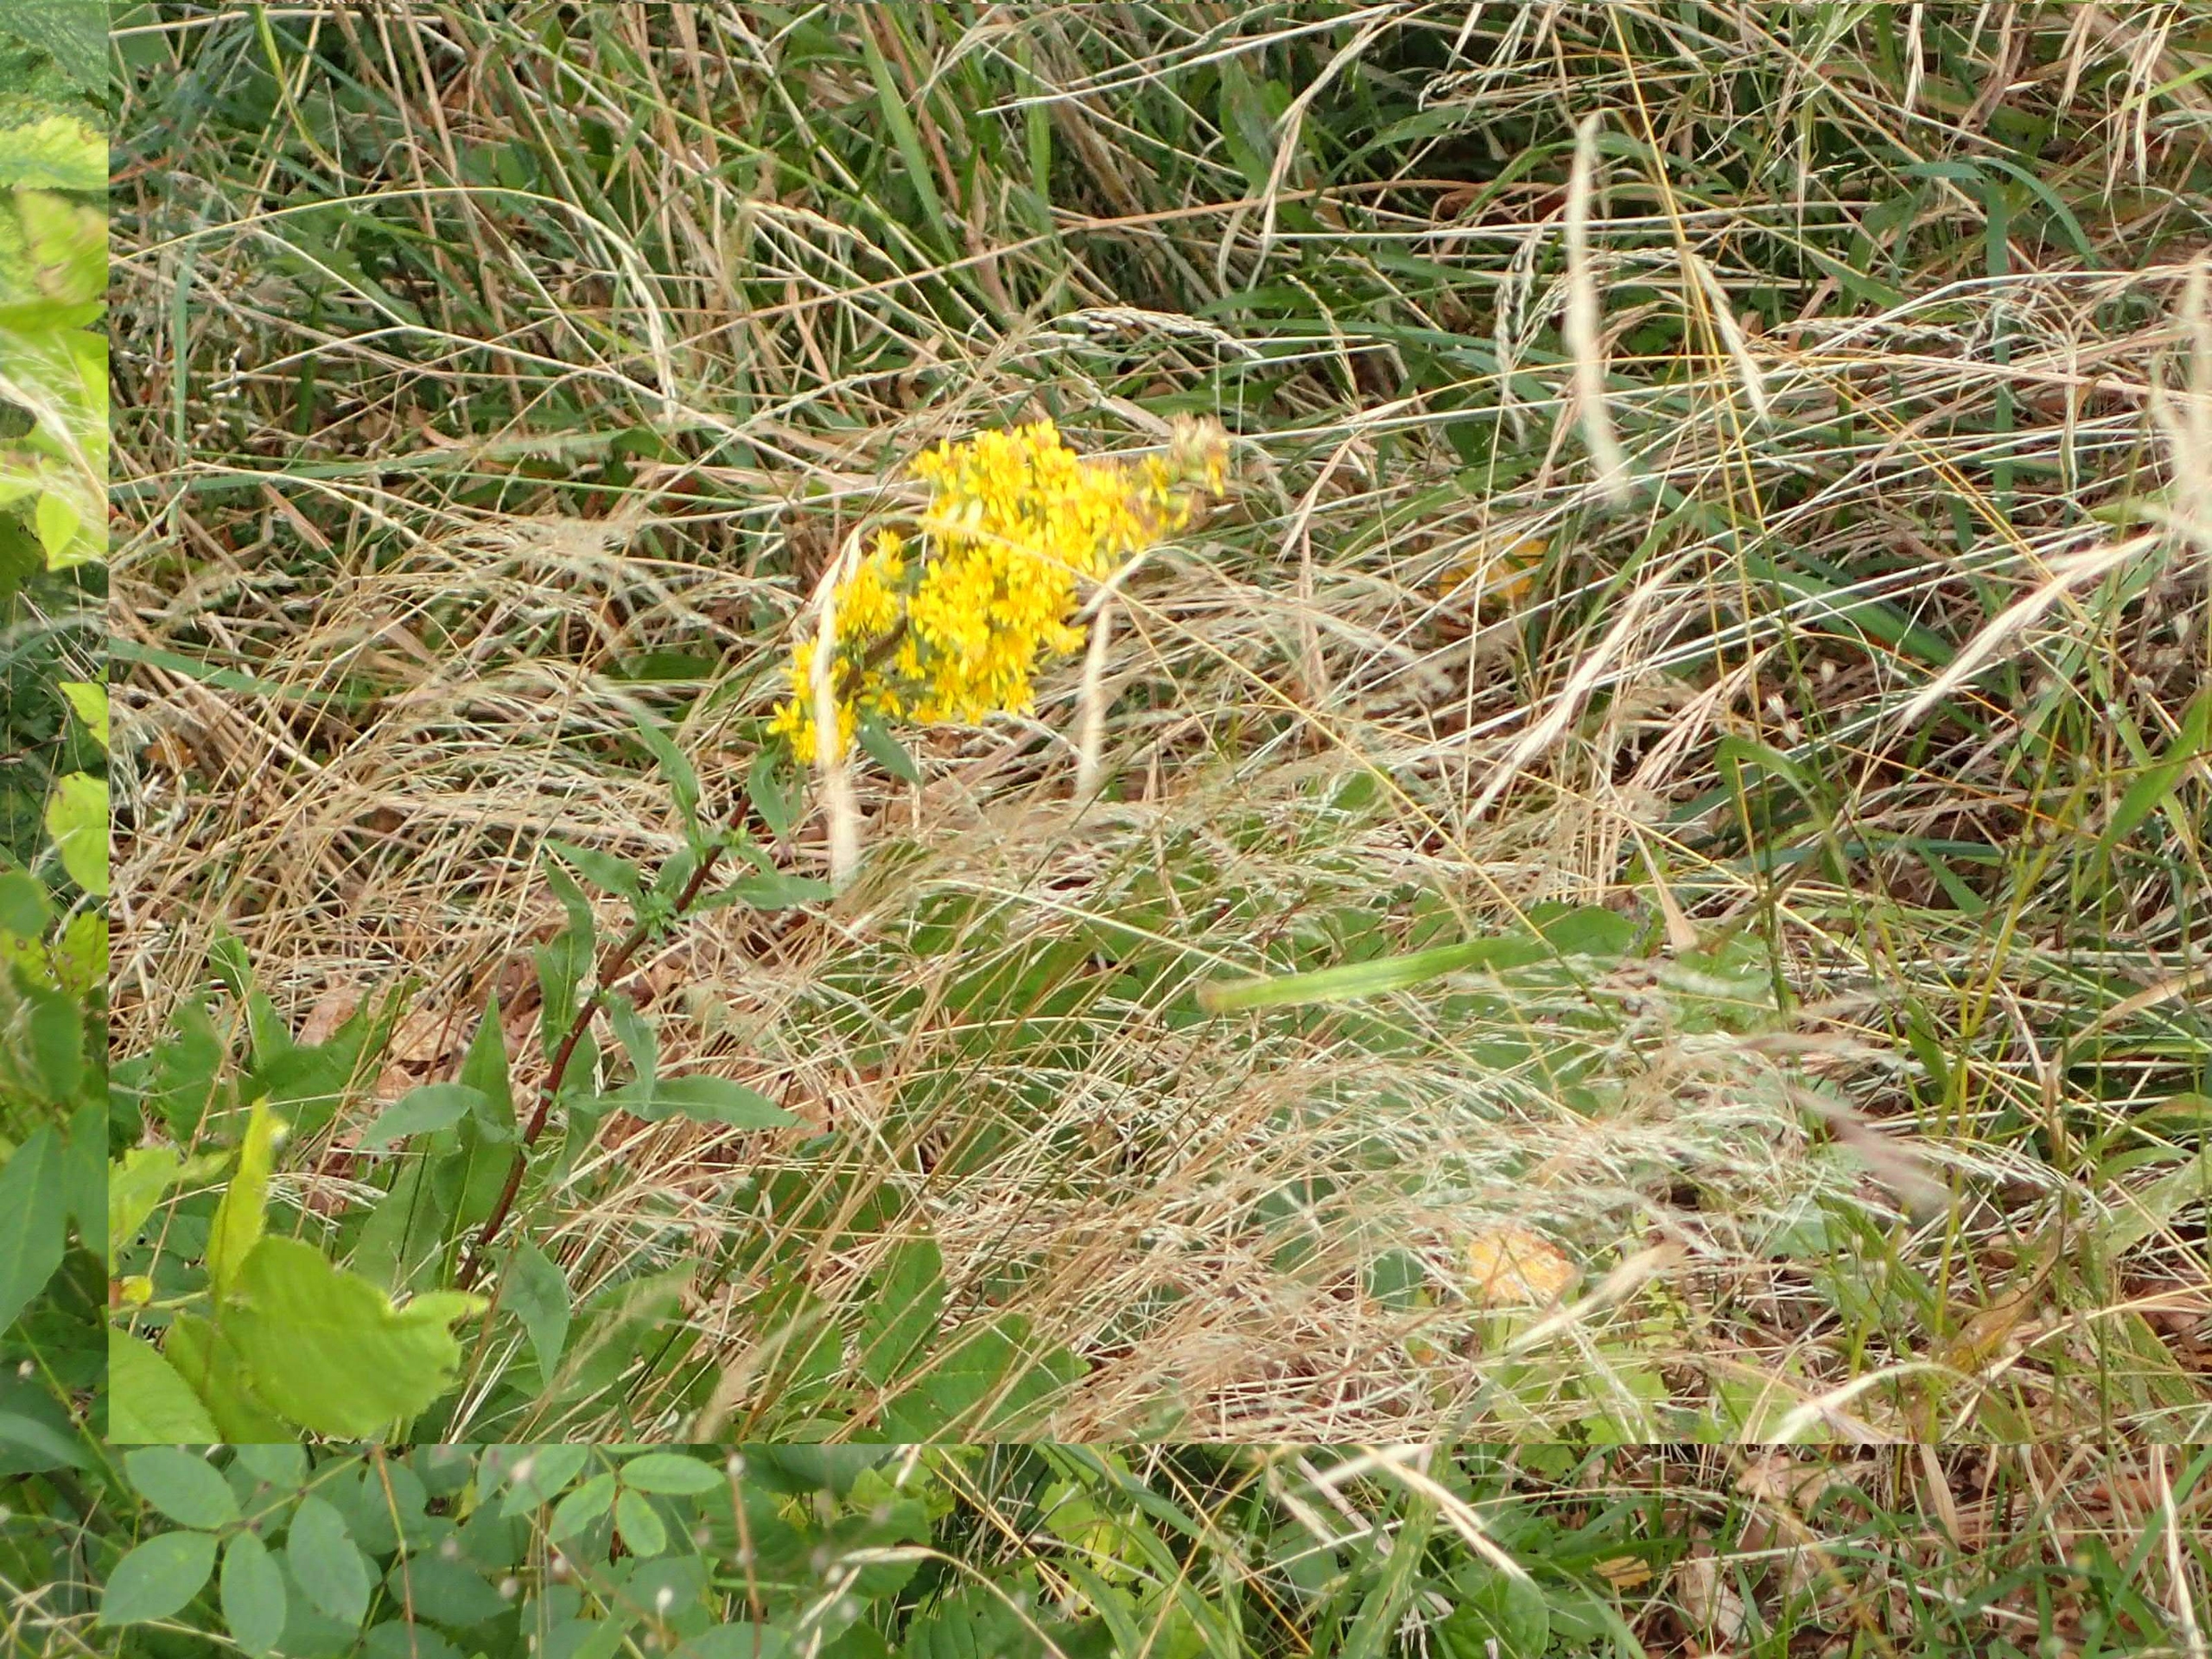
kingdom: Plantae
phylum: Tracheophyta
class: Magnoliopsida
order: Asterales
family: Asteraceae
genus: Solidago
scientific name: Solidago virgaurea
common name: Almindelig gyldenris
